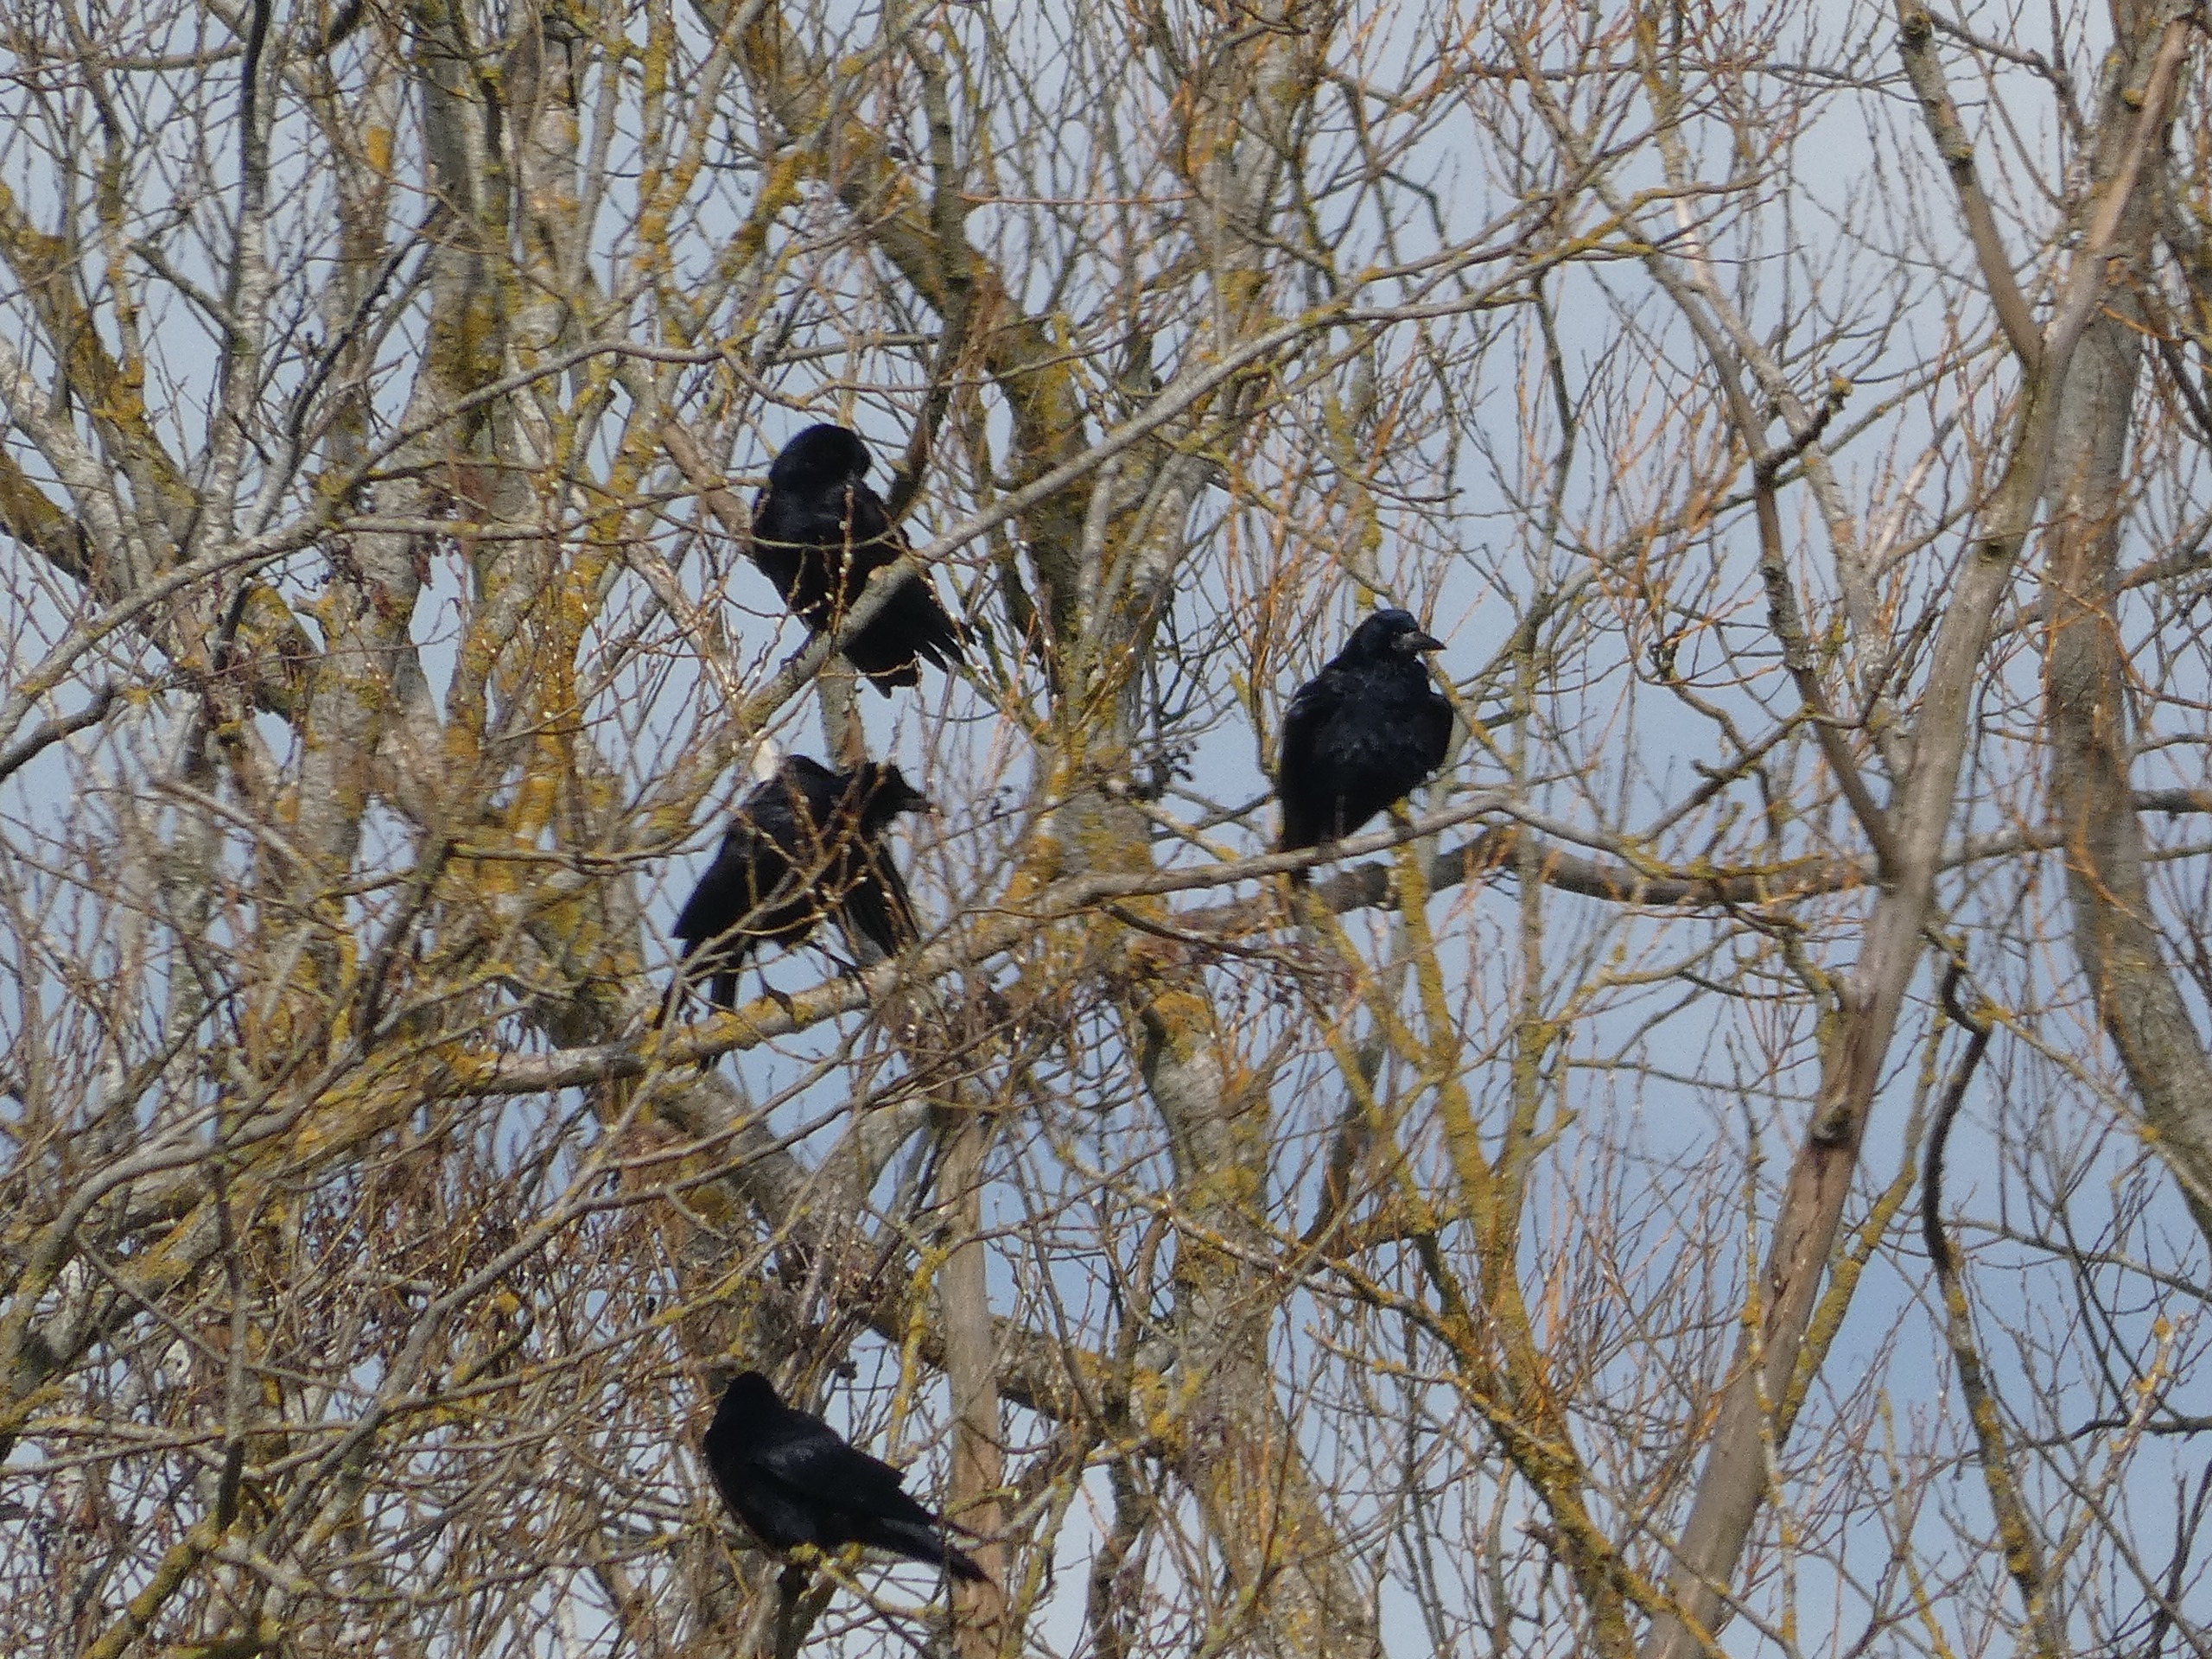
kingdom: Animalia
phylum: Chordata
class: Aves
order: Passeriformes
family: Corvidae
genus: Corvus
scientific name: Corvus frugilegus
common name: Råge
